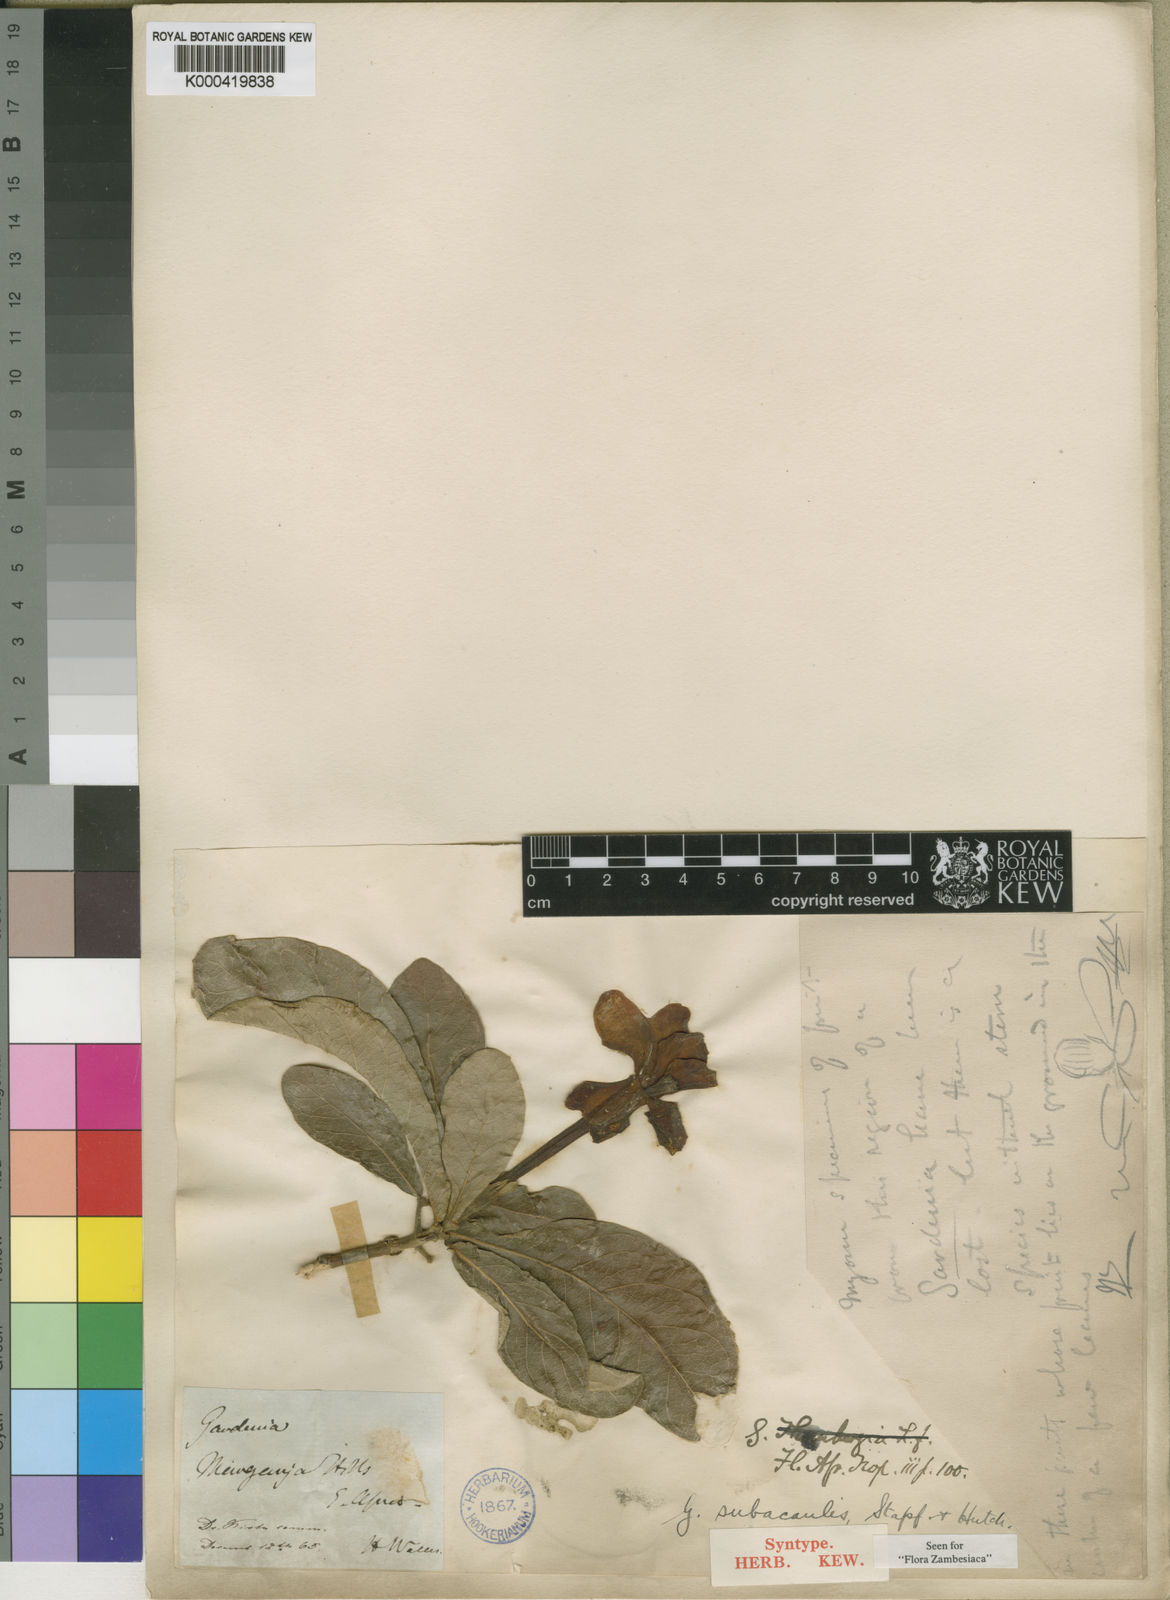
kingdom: Plantae
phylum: Tracheophyta
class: Magnoliopsida
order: Gentianales
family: Rubiaceae
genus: Gardenia
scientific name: Gardenia subacaulis
